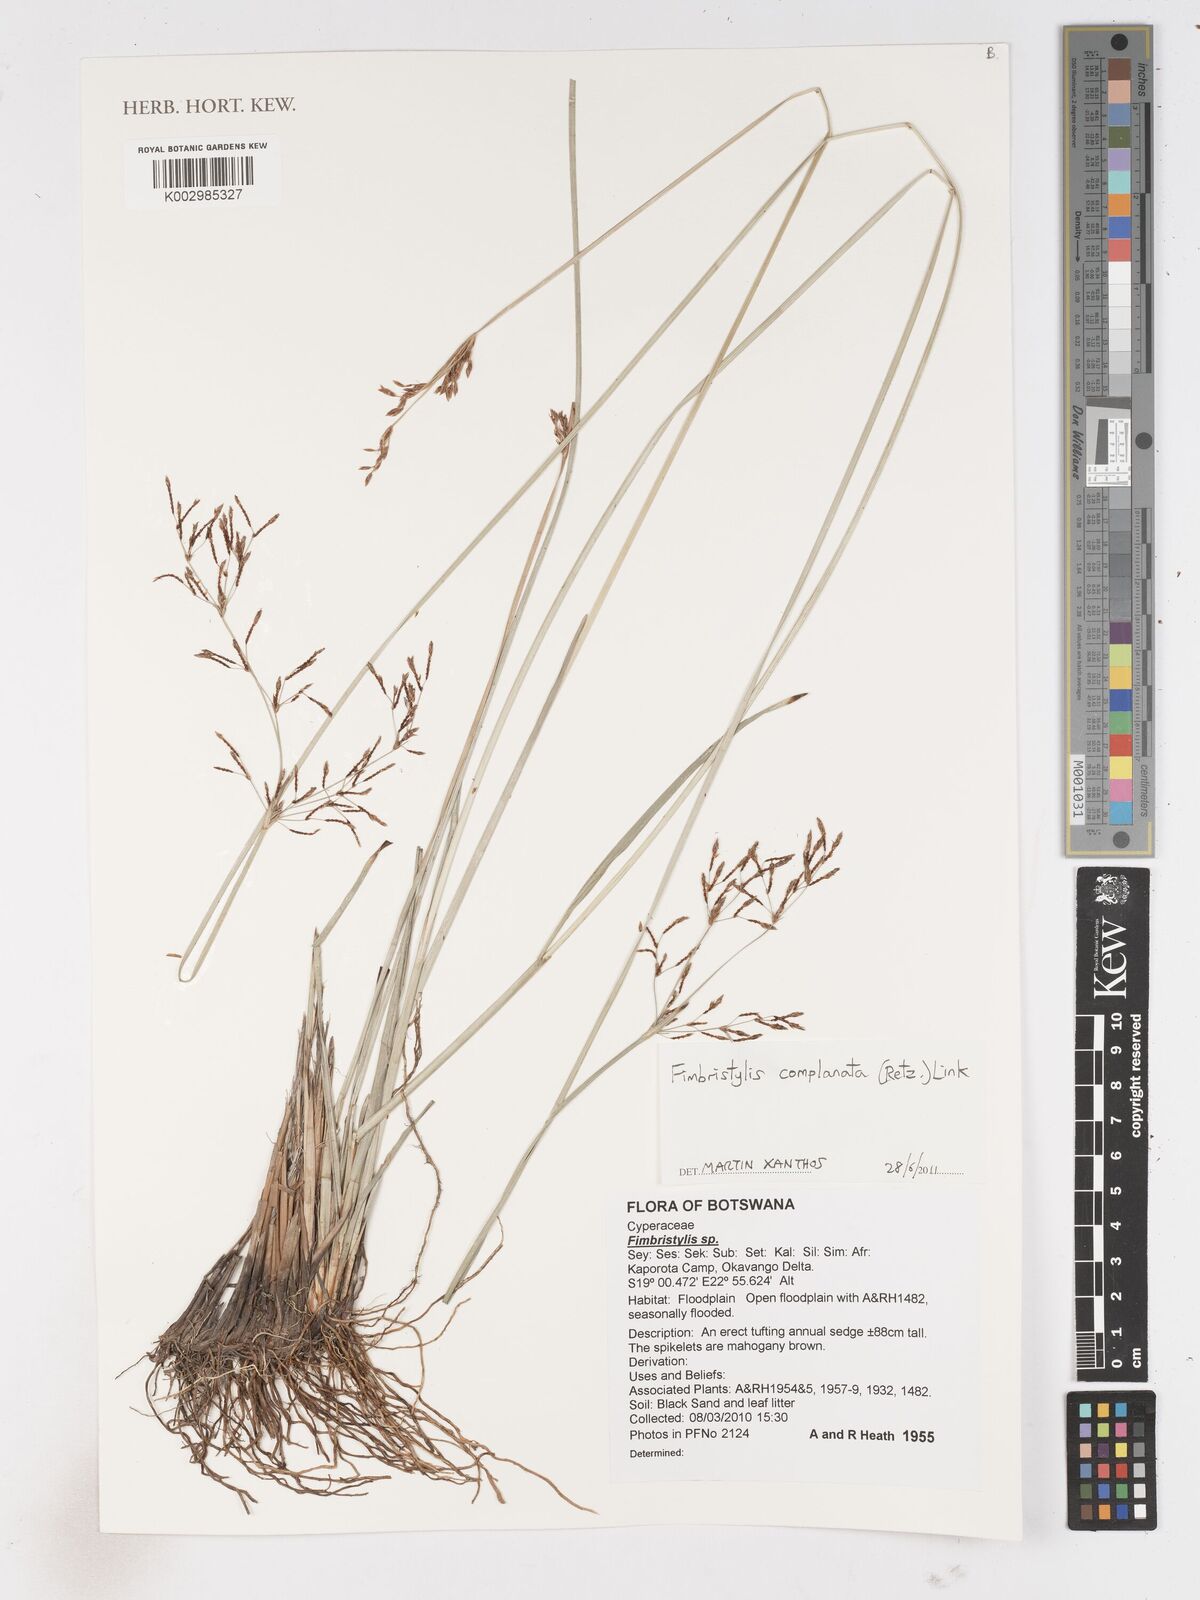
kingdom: Plantae
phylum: Tracheophyta
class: Liliopsida
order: Poales
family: Cyperaceae
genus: Fimbristylis
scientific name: Fimbristylis complanata
